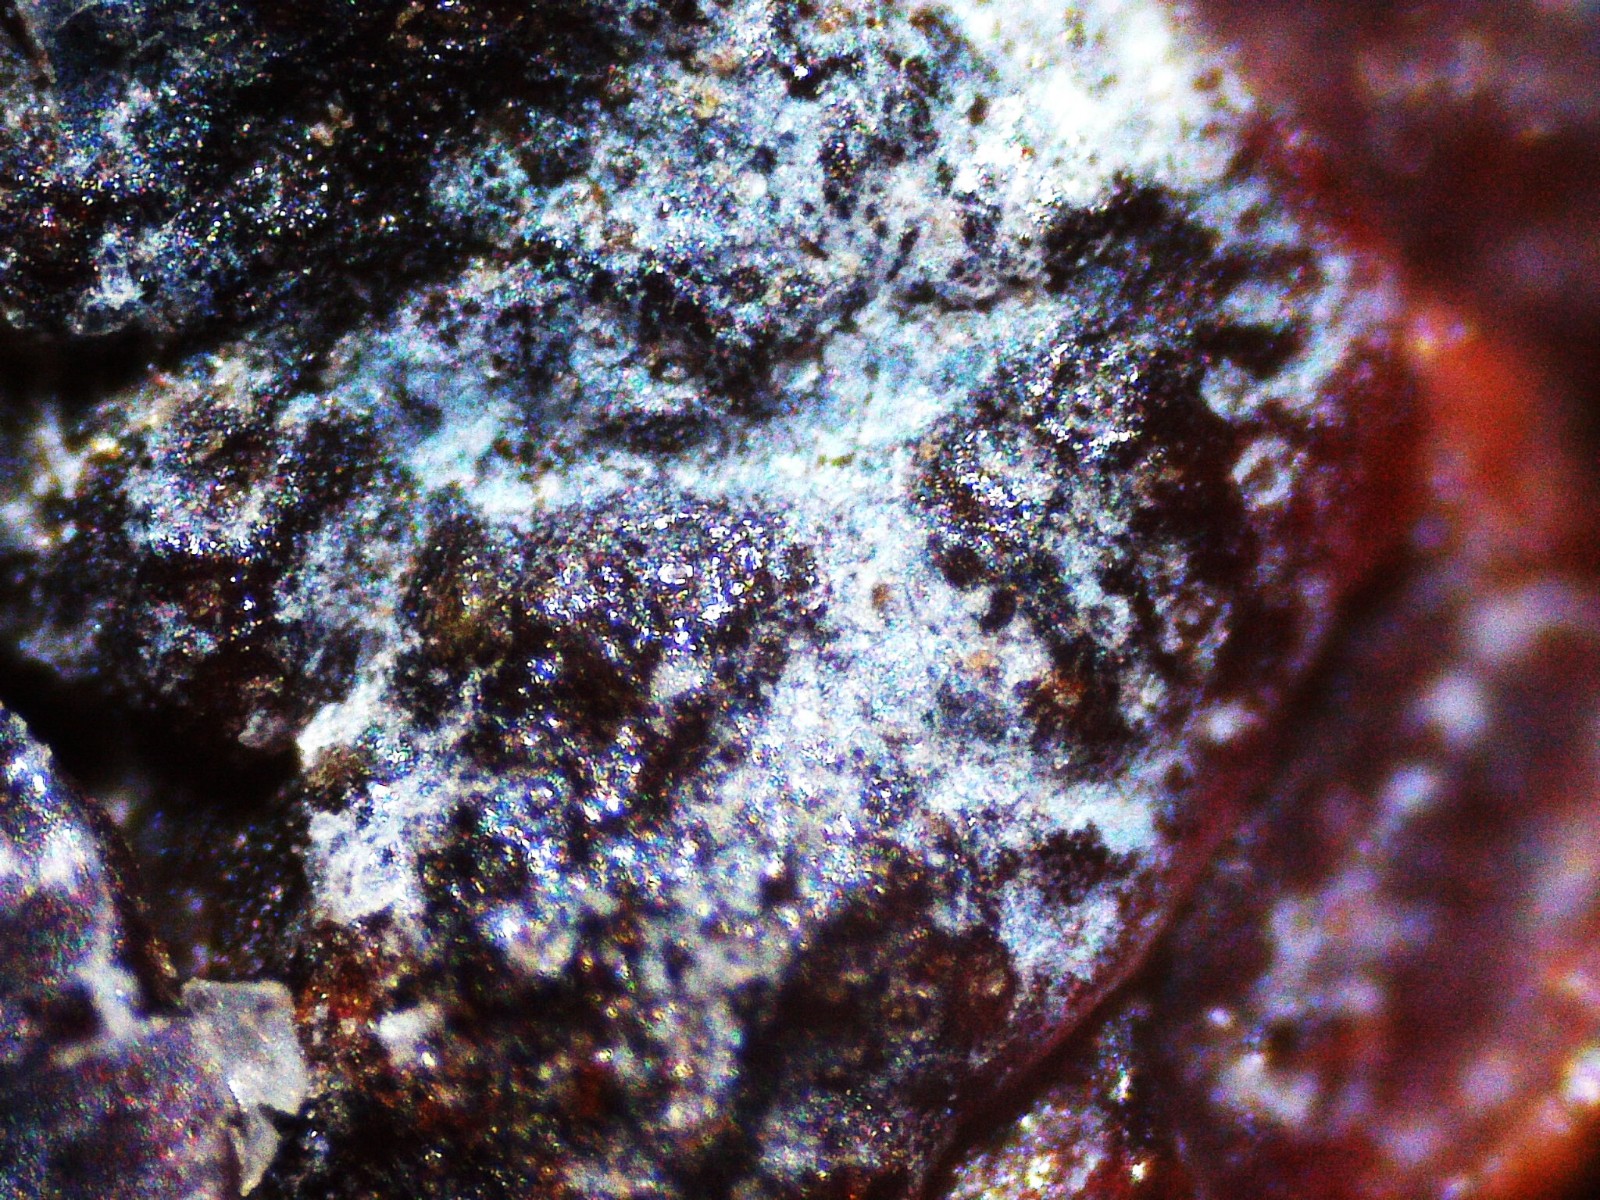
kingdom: Fungi
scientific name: Fungi
